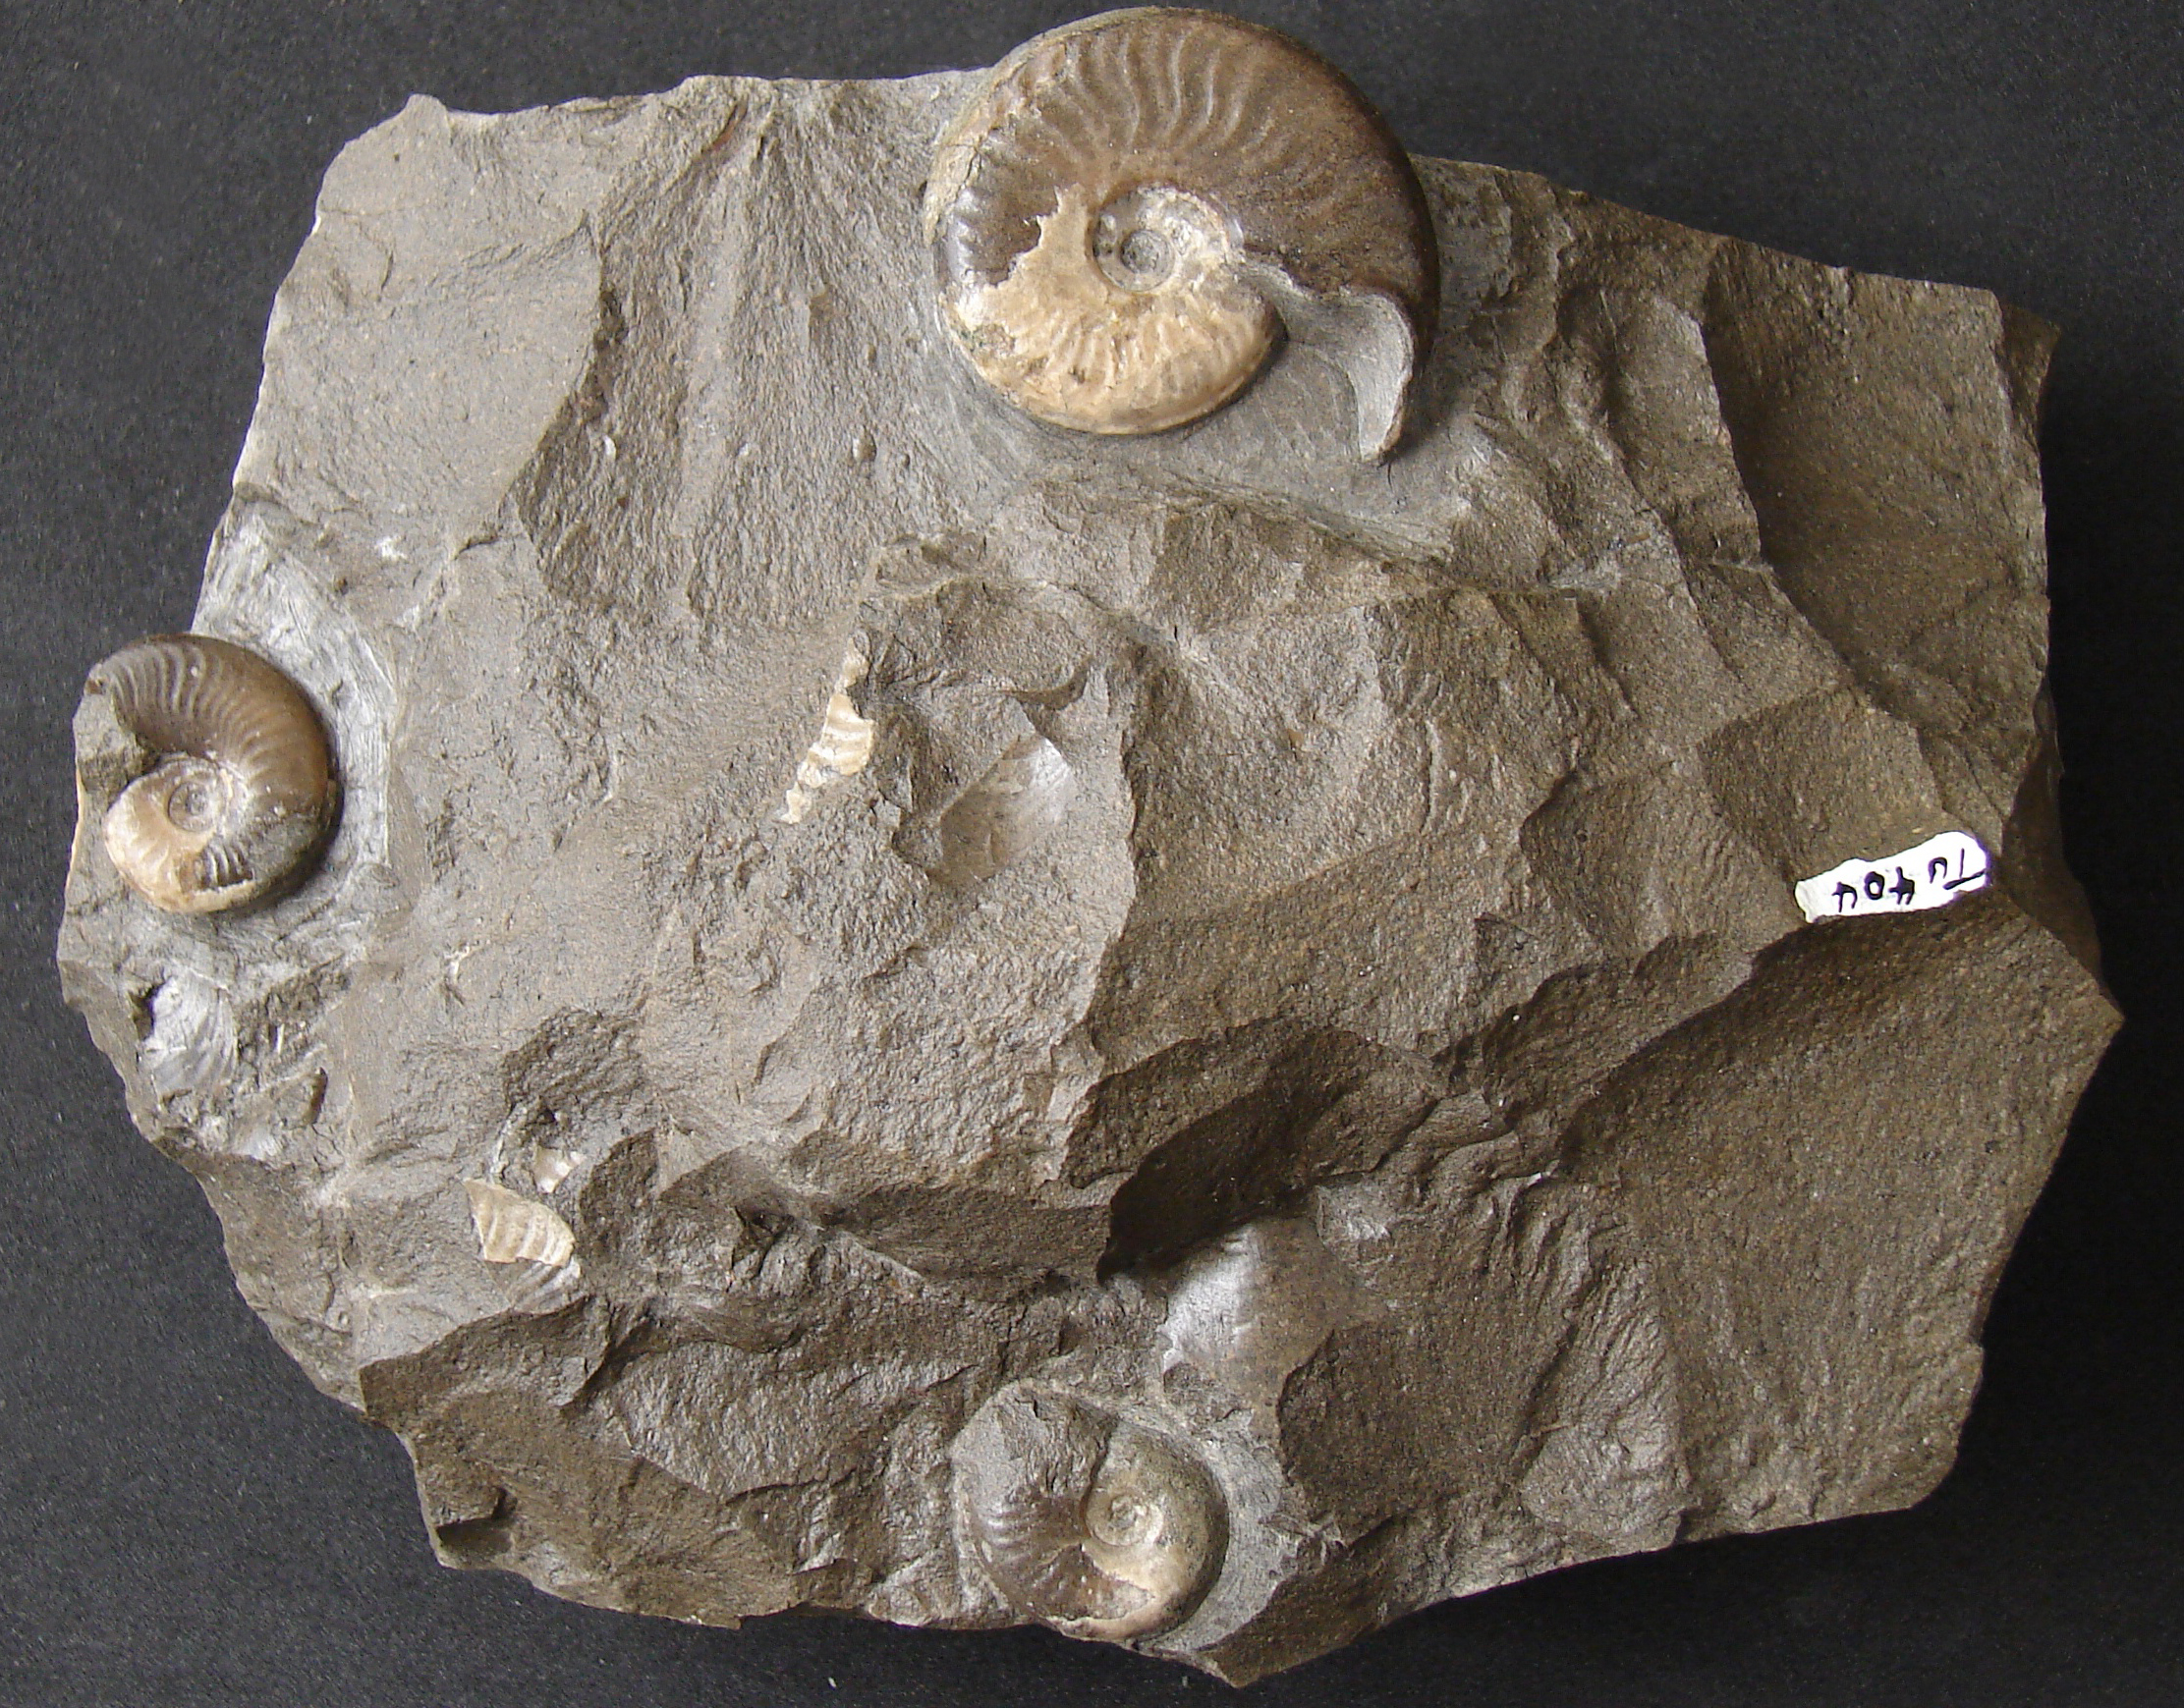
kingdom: Animalia
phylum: Mollusca
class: Cephalopoda
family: Hildoceratidae
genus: Harpoceras
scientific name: Harpoceras soloniacense
